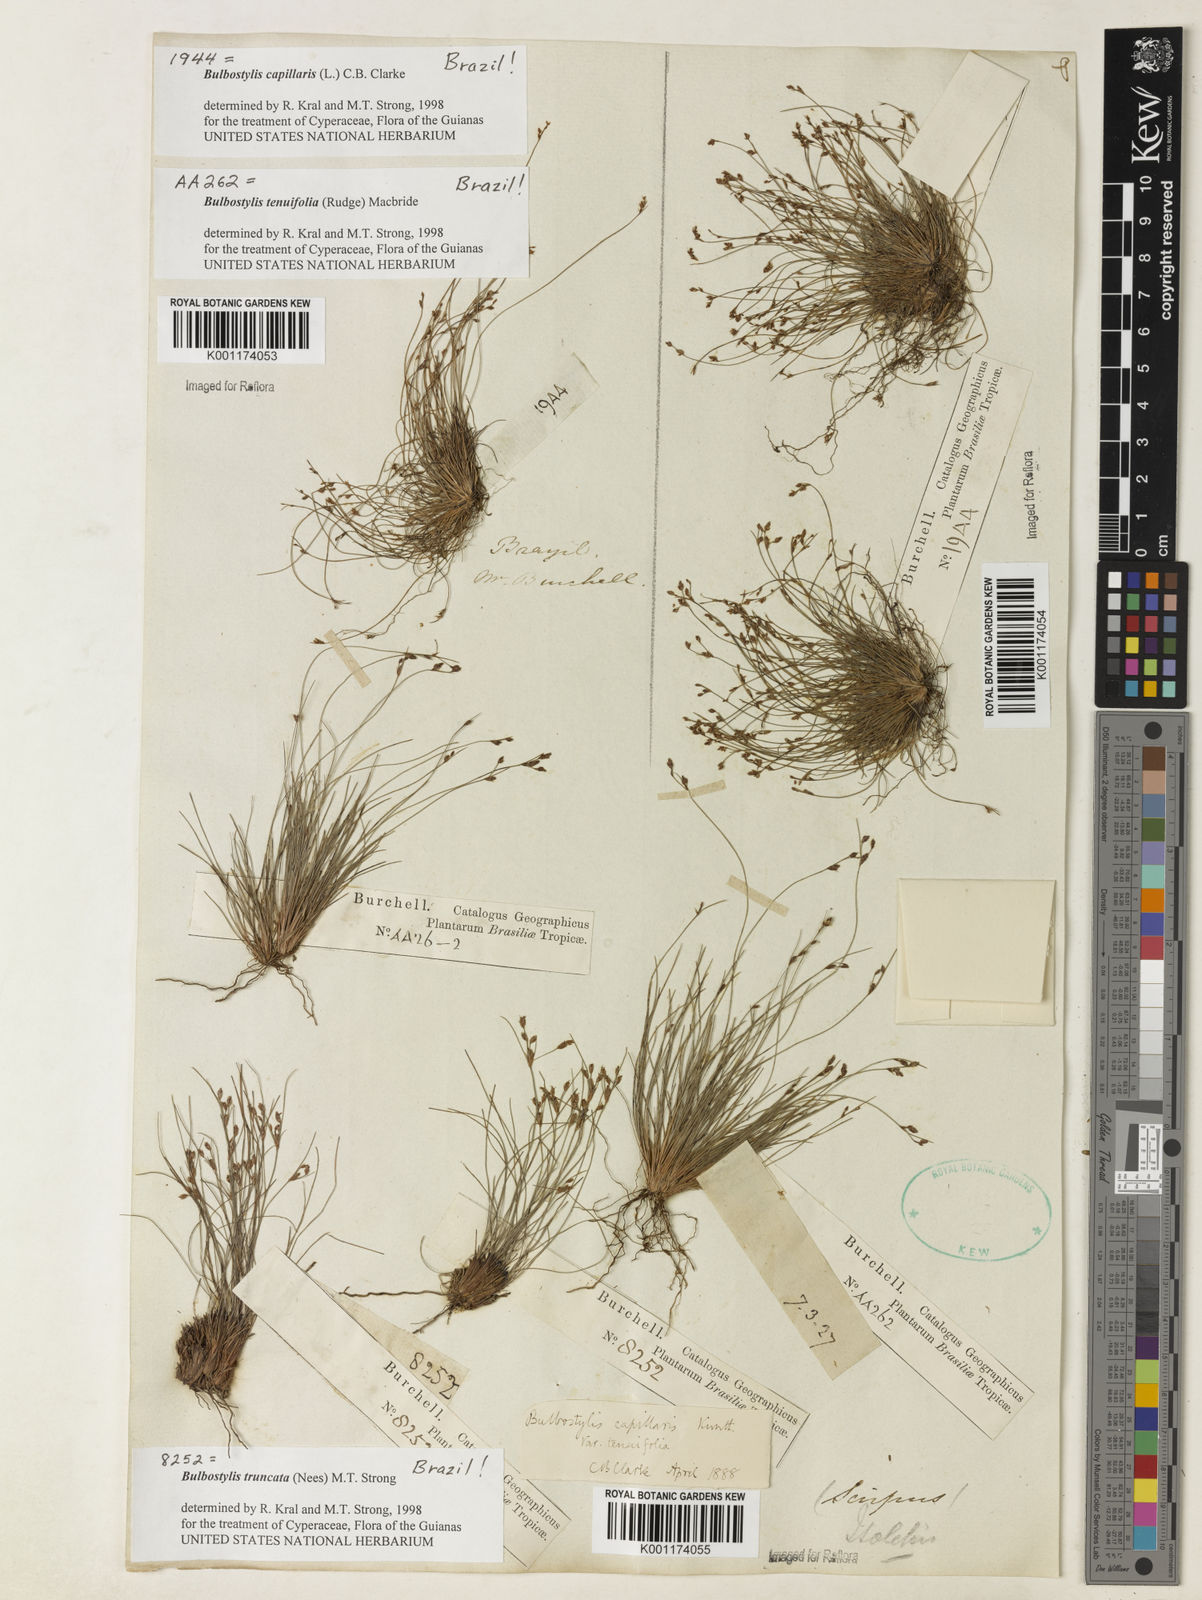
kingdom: Plantae
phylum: Tracheophyta
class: Liliopsida
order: Poales
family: Cyperaceae
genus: Bulbostylis
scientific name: Bulbostylis truncata
